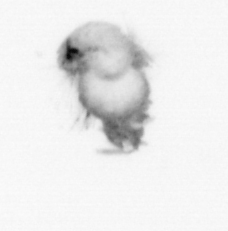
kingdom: Animalia
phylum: Annelida
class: Polychaeta
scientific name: Polychaeta
